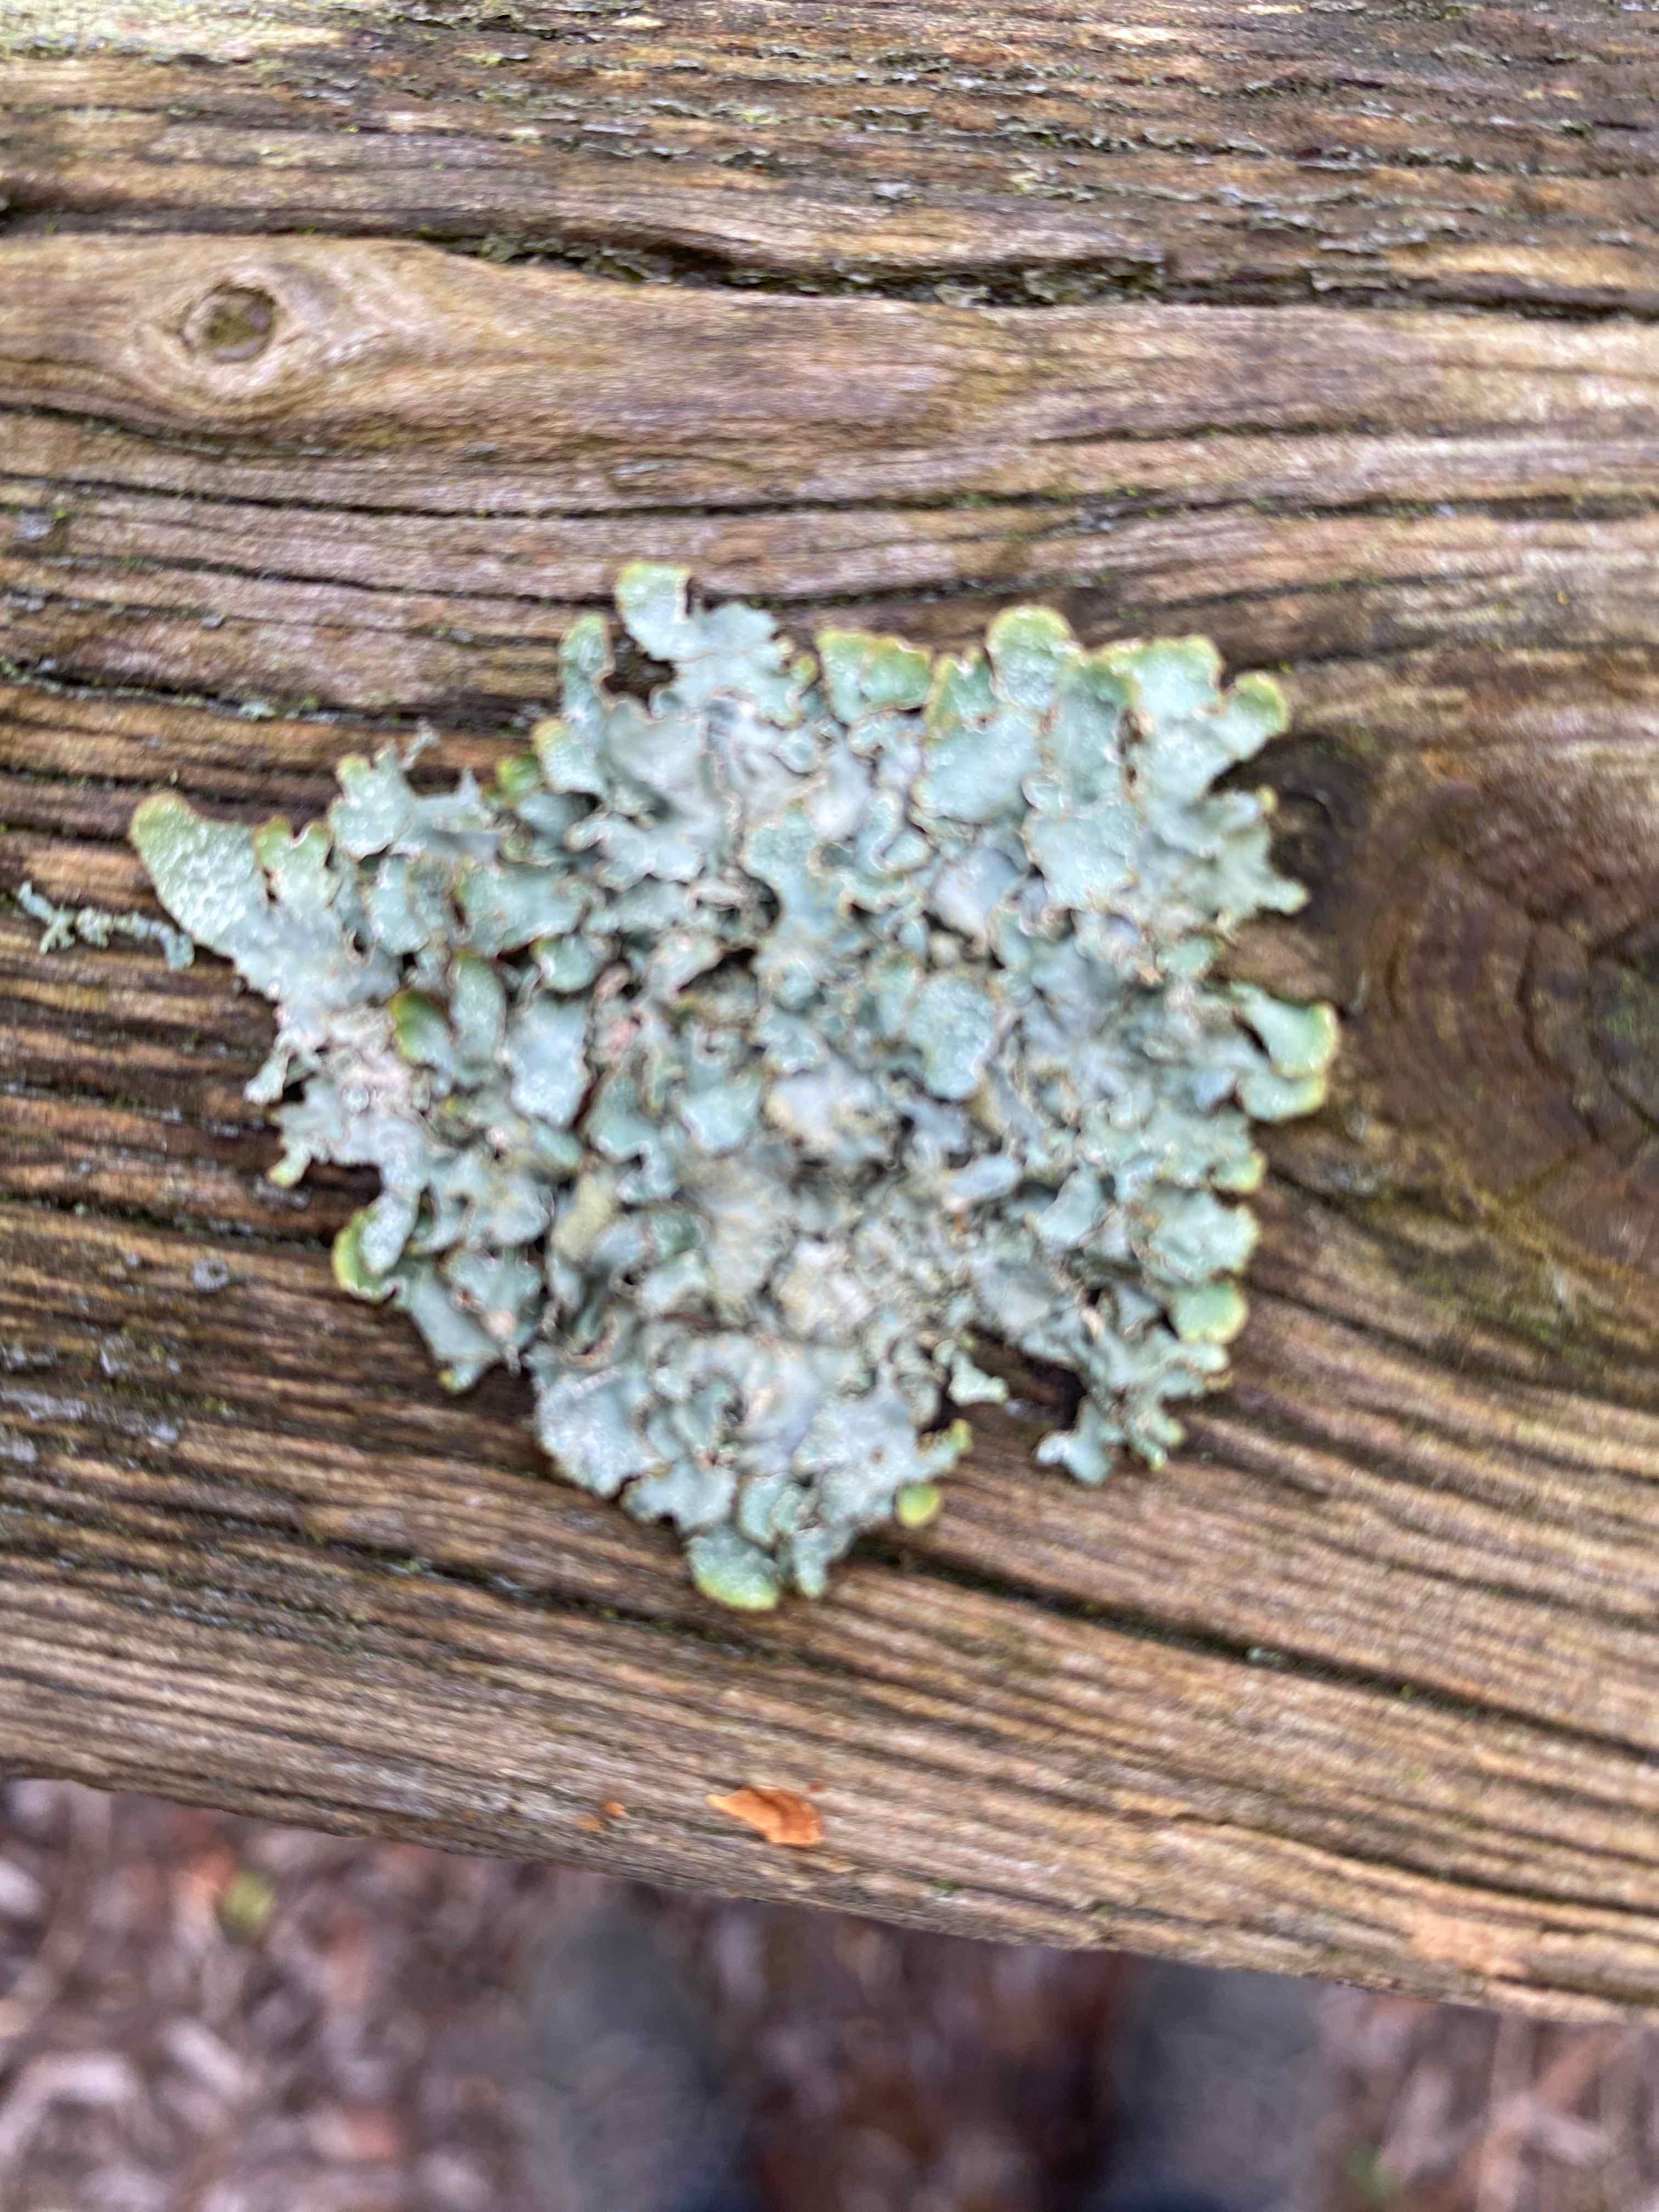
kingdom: Fungi
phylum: Ascomycota
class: Lecanoromycetes
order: Lecanorales
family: Parmeliaceae
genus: Parmelia
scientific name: Parmelia sulcata
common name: rynket skållav
